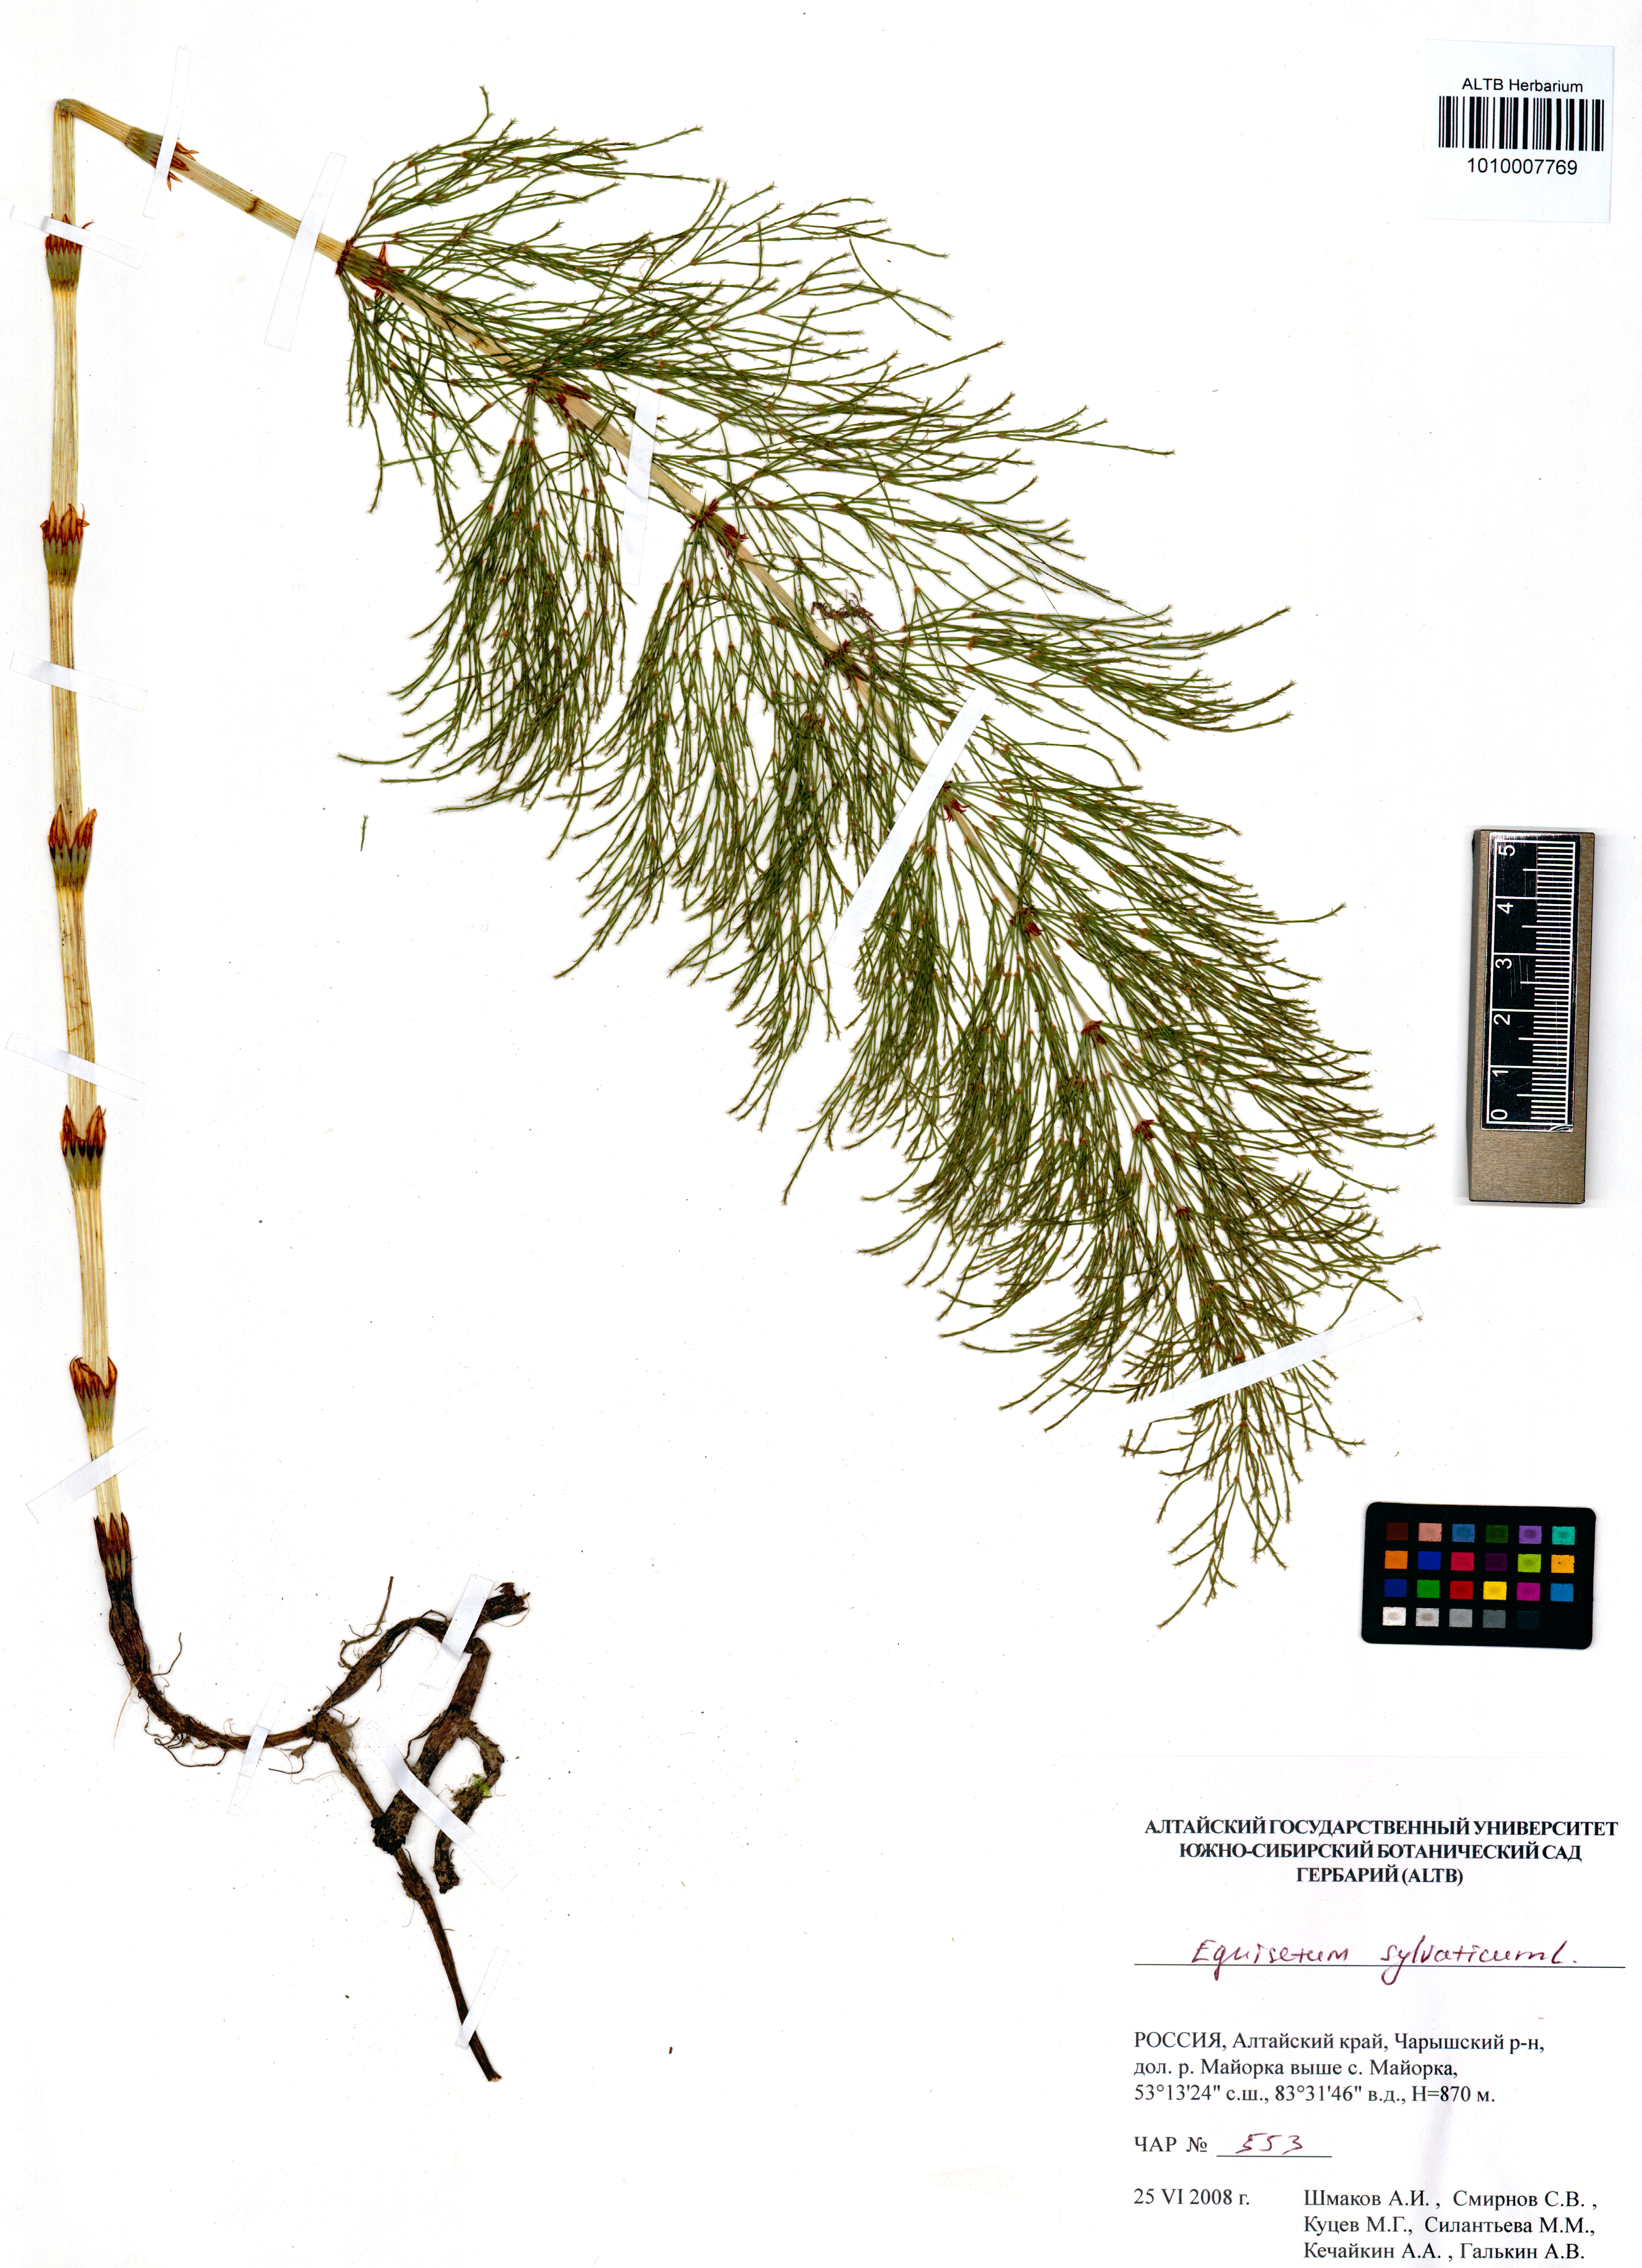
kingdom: Plantae
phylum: Tracheophyta
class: Polypodiopsida
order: Equisetales
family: Equisetaceae
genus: Equisetum
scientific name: Equisetum sylvaticum
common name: Wood horsetail
